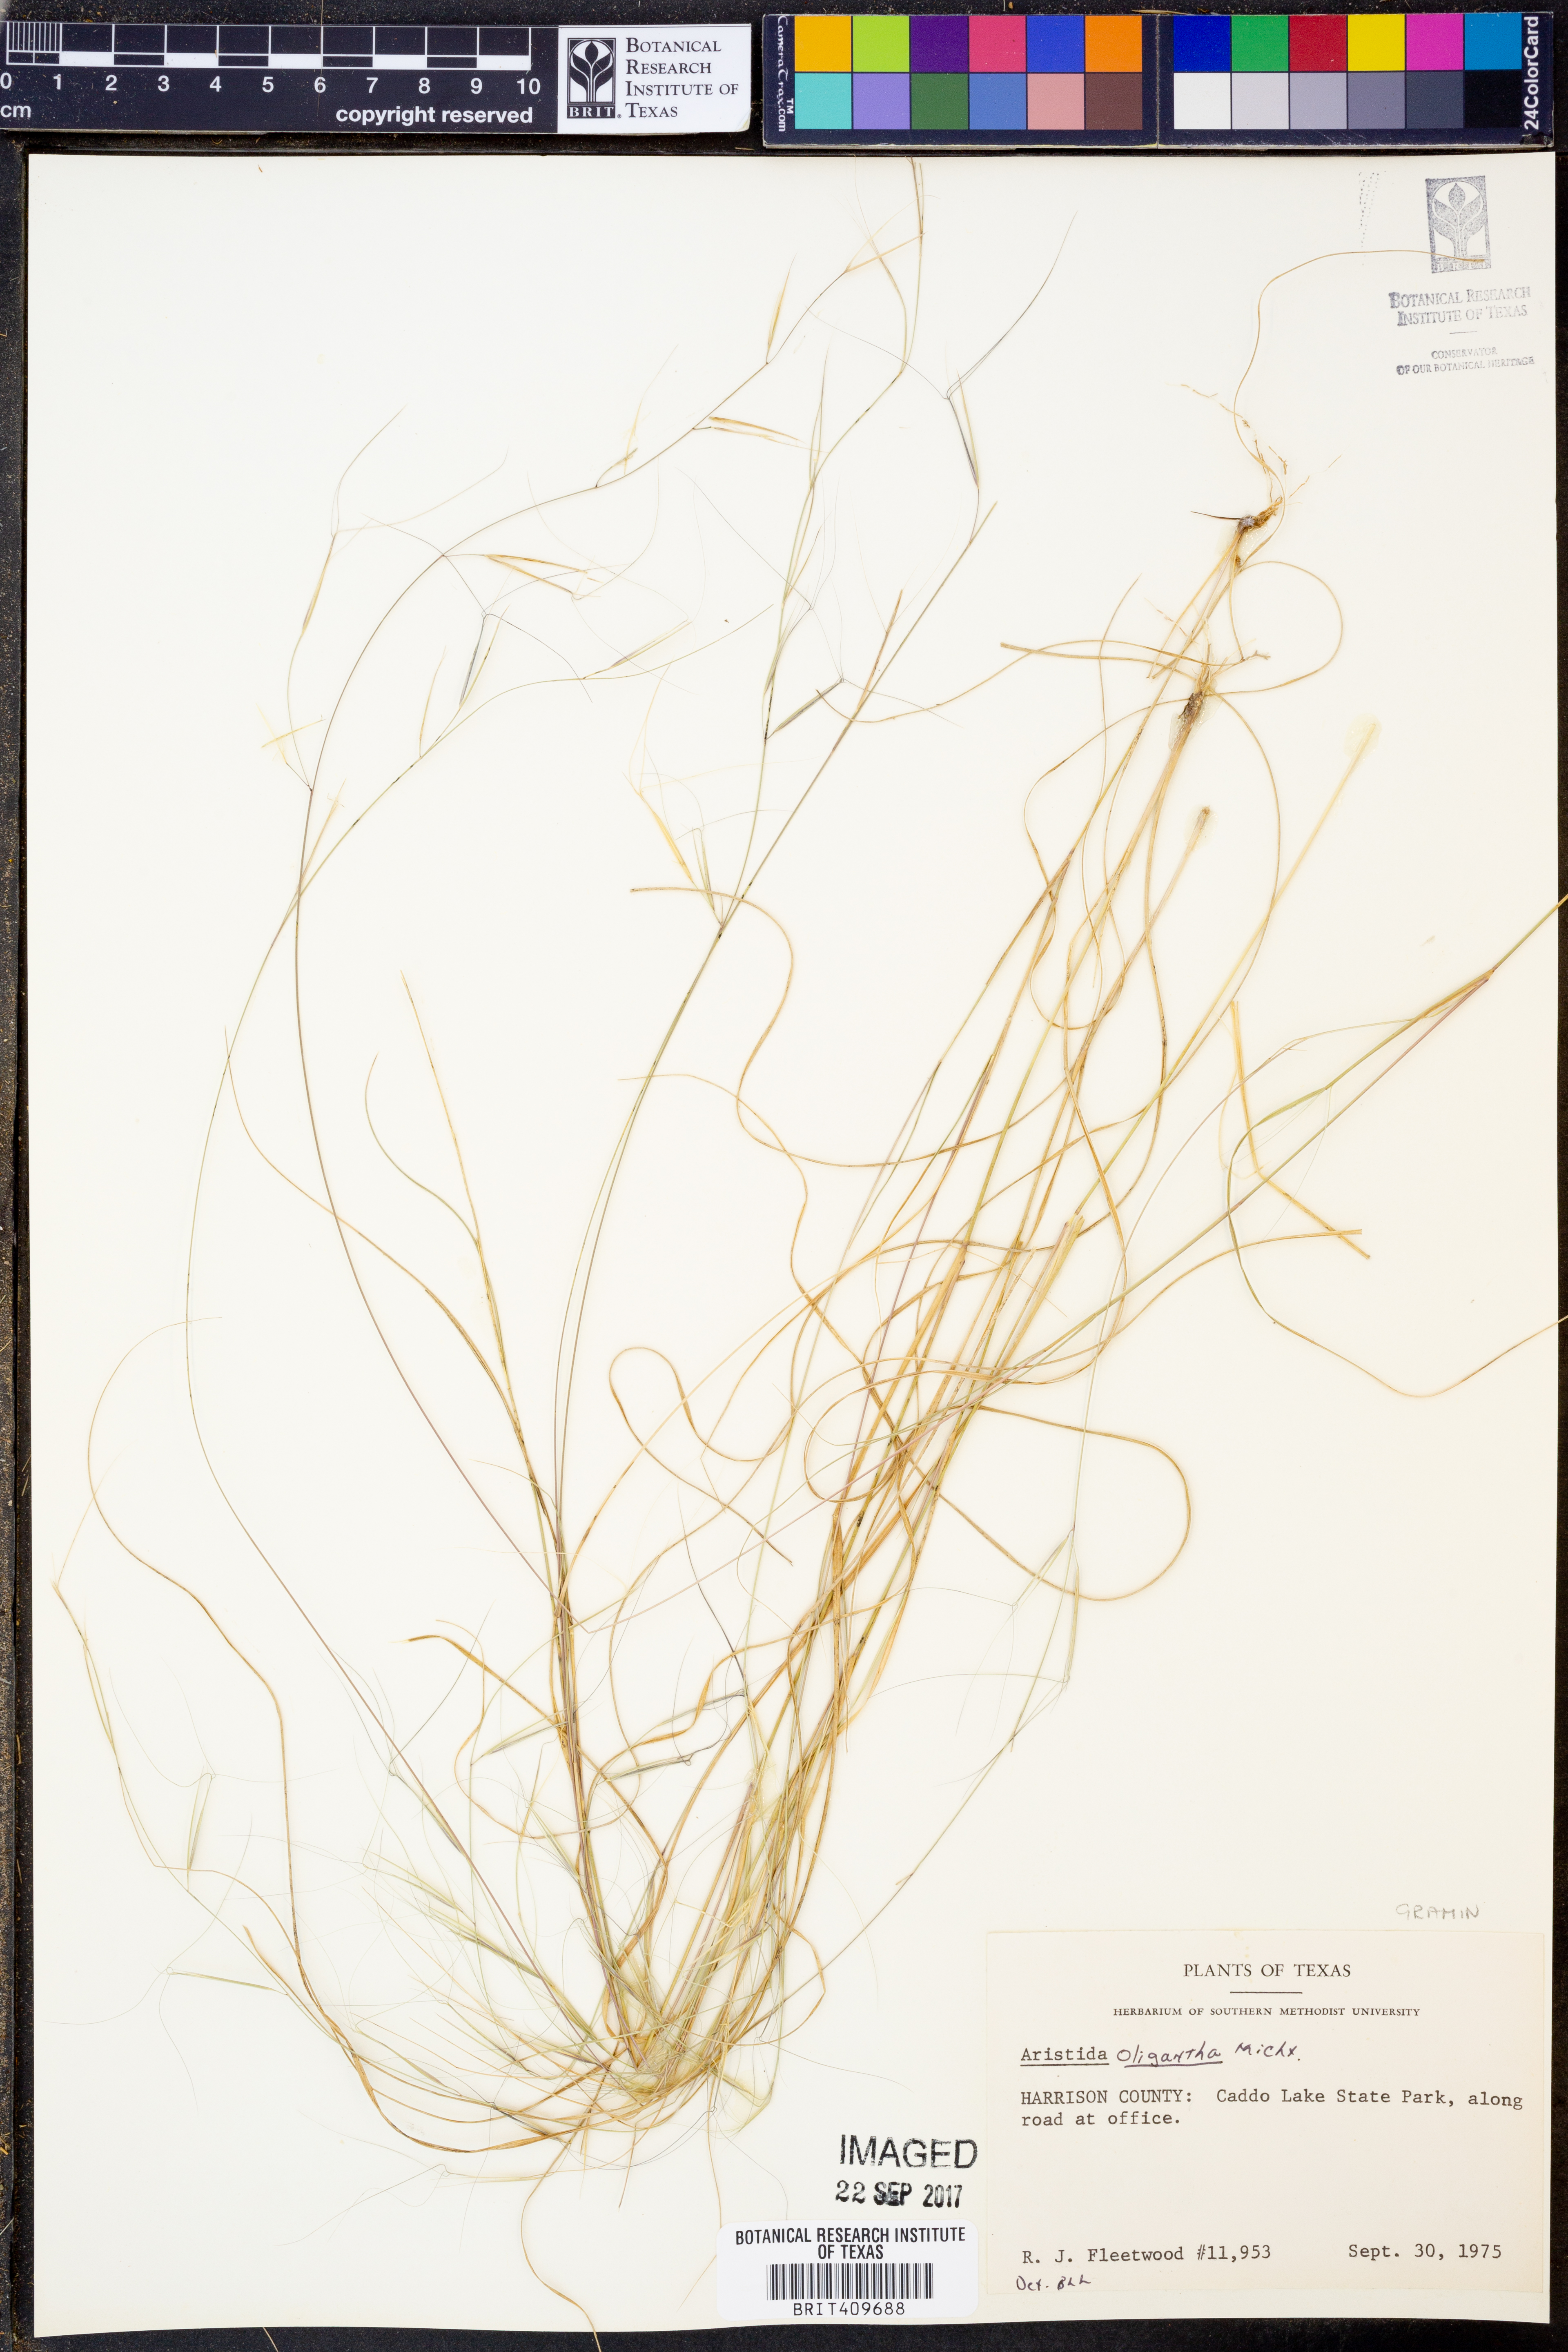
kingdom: Plantae
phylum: Tracheophyta
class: Liliopsida
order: Poales
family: Poaceae
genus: Aristida
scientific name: Aristida oligantha
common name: Few-flowered aristida
